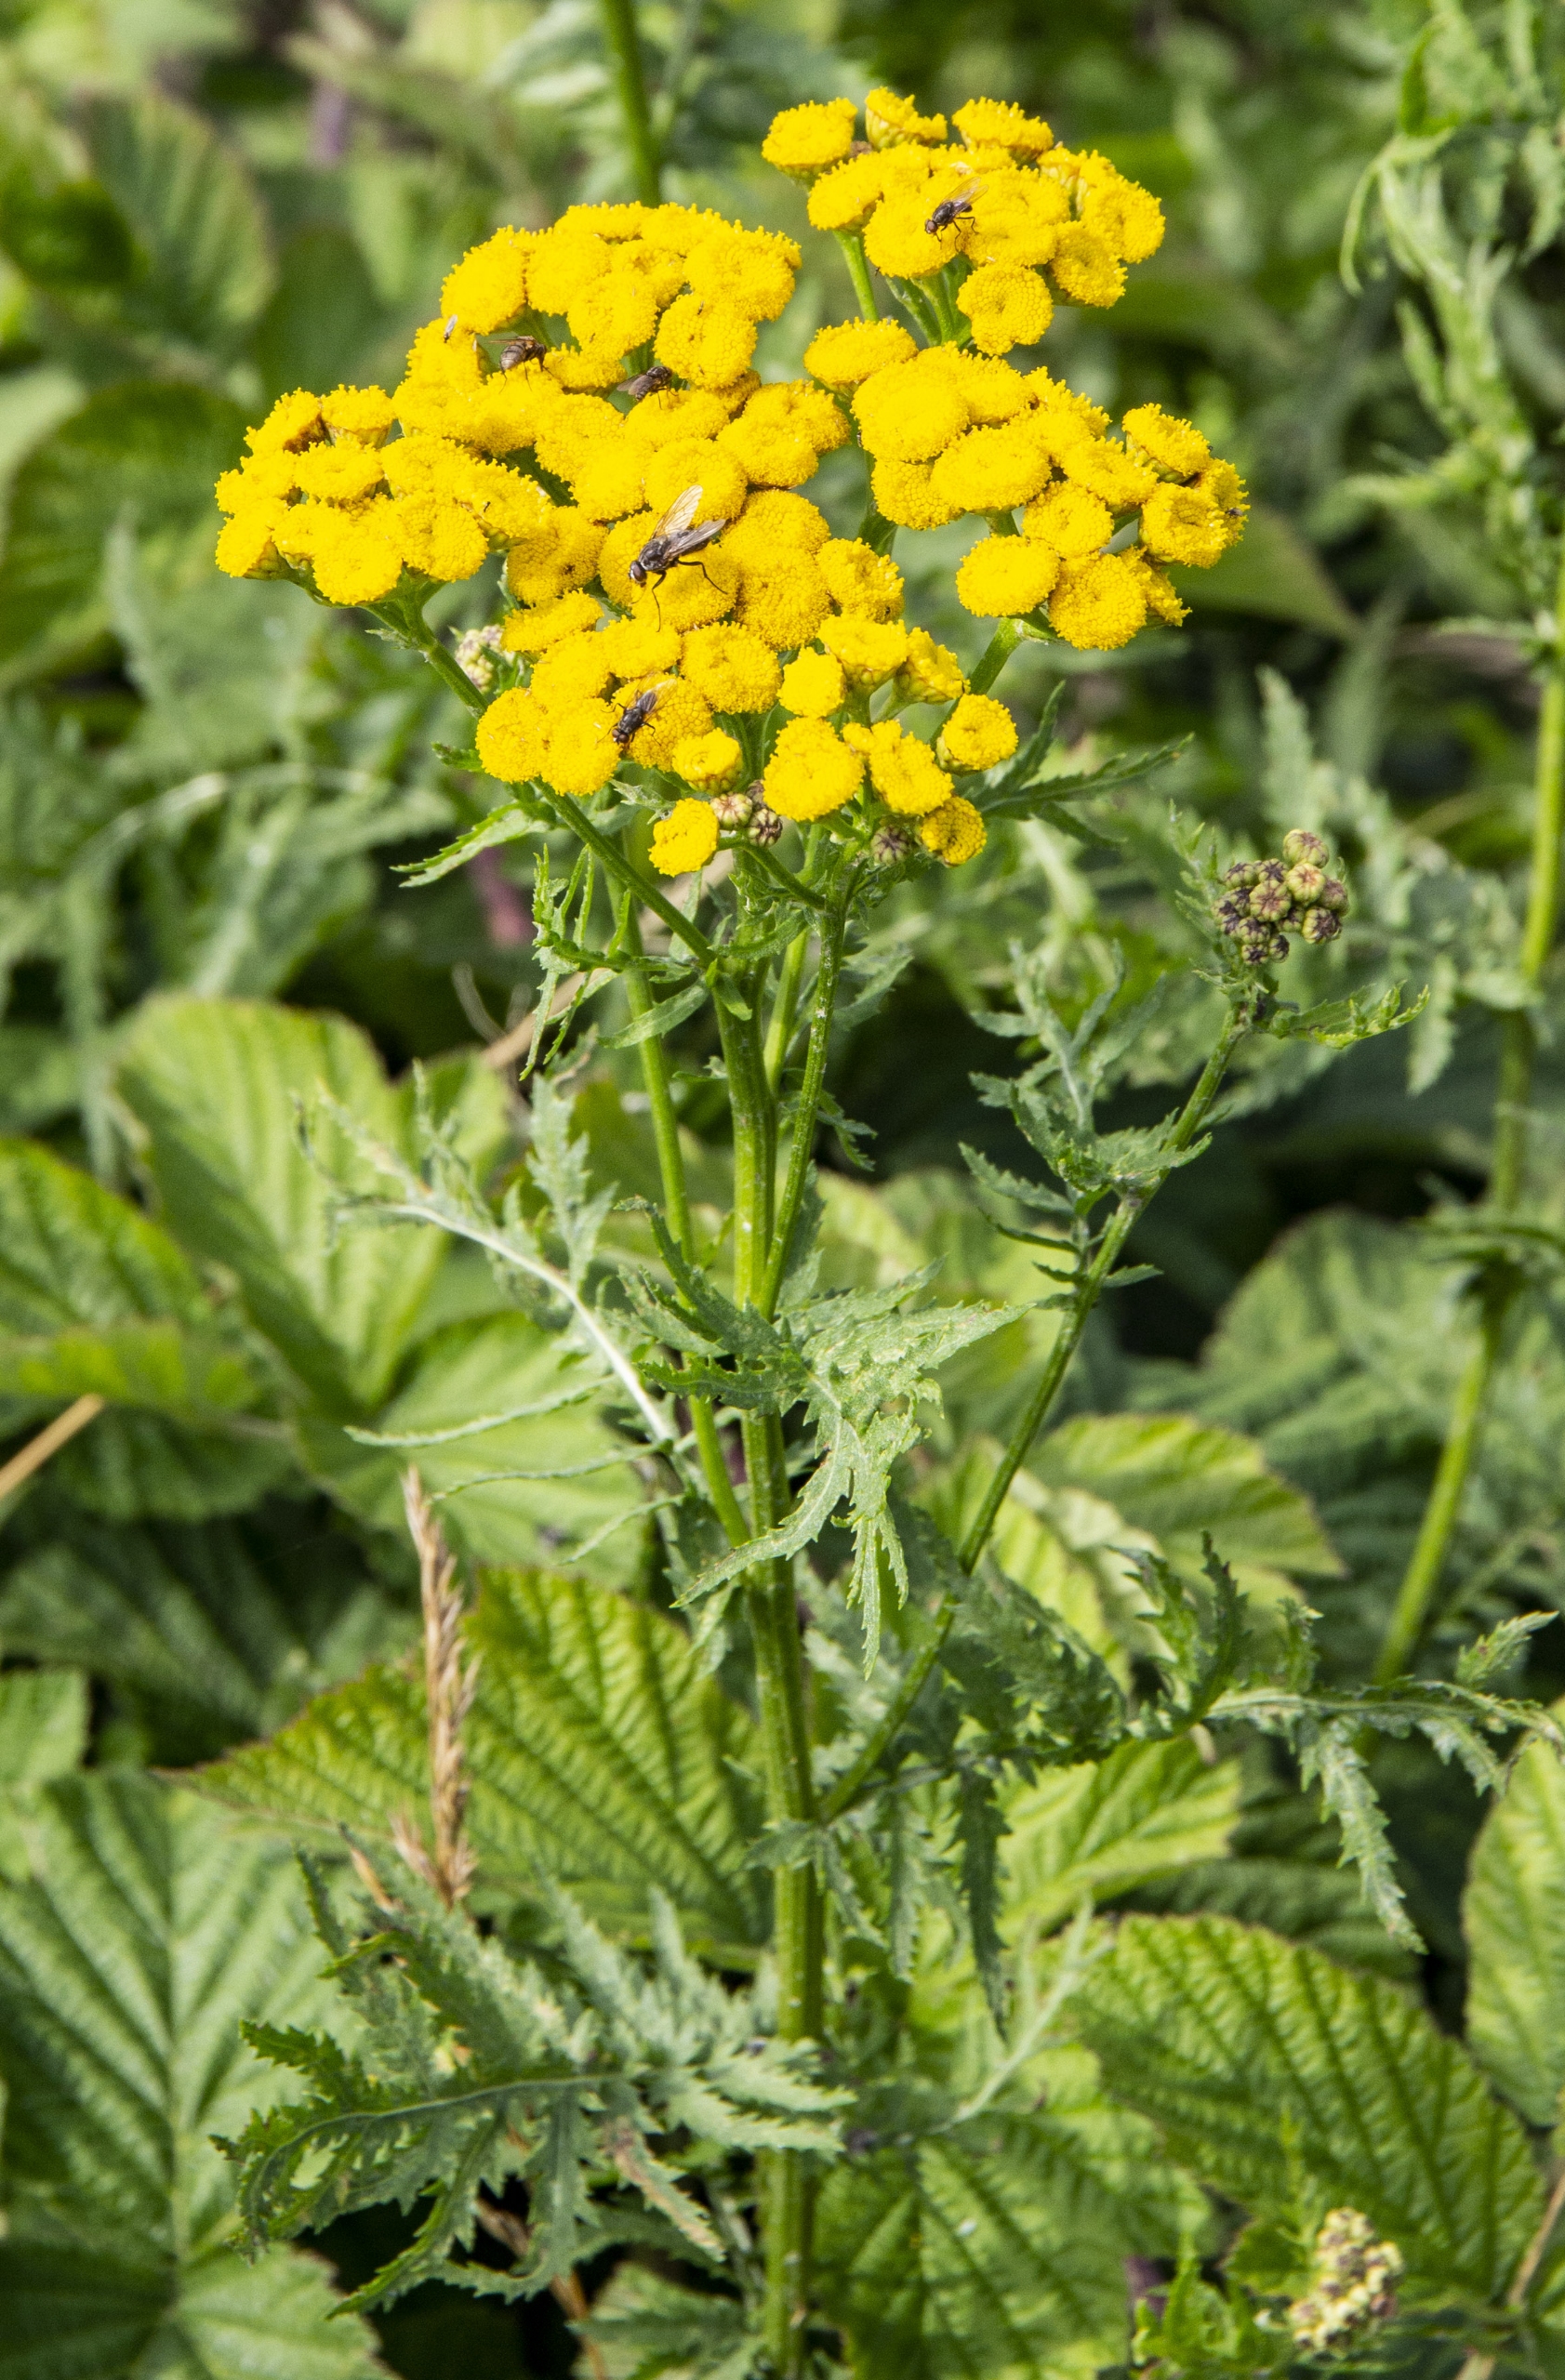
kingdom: Plantae
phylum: Tracheophyta
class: Magnoliopsida
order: Asterales
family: Asteraceae
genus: Tanacetum
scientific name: Tanacetum vulgare
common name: Rejnfan
